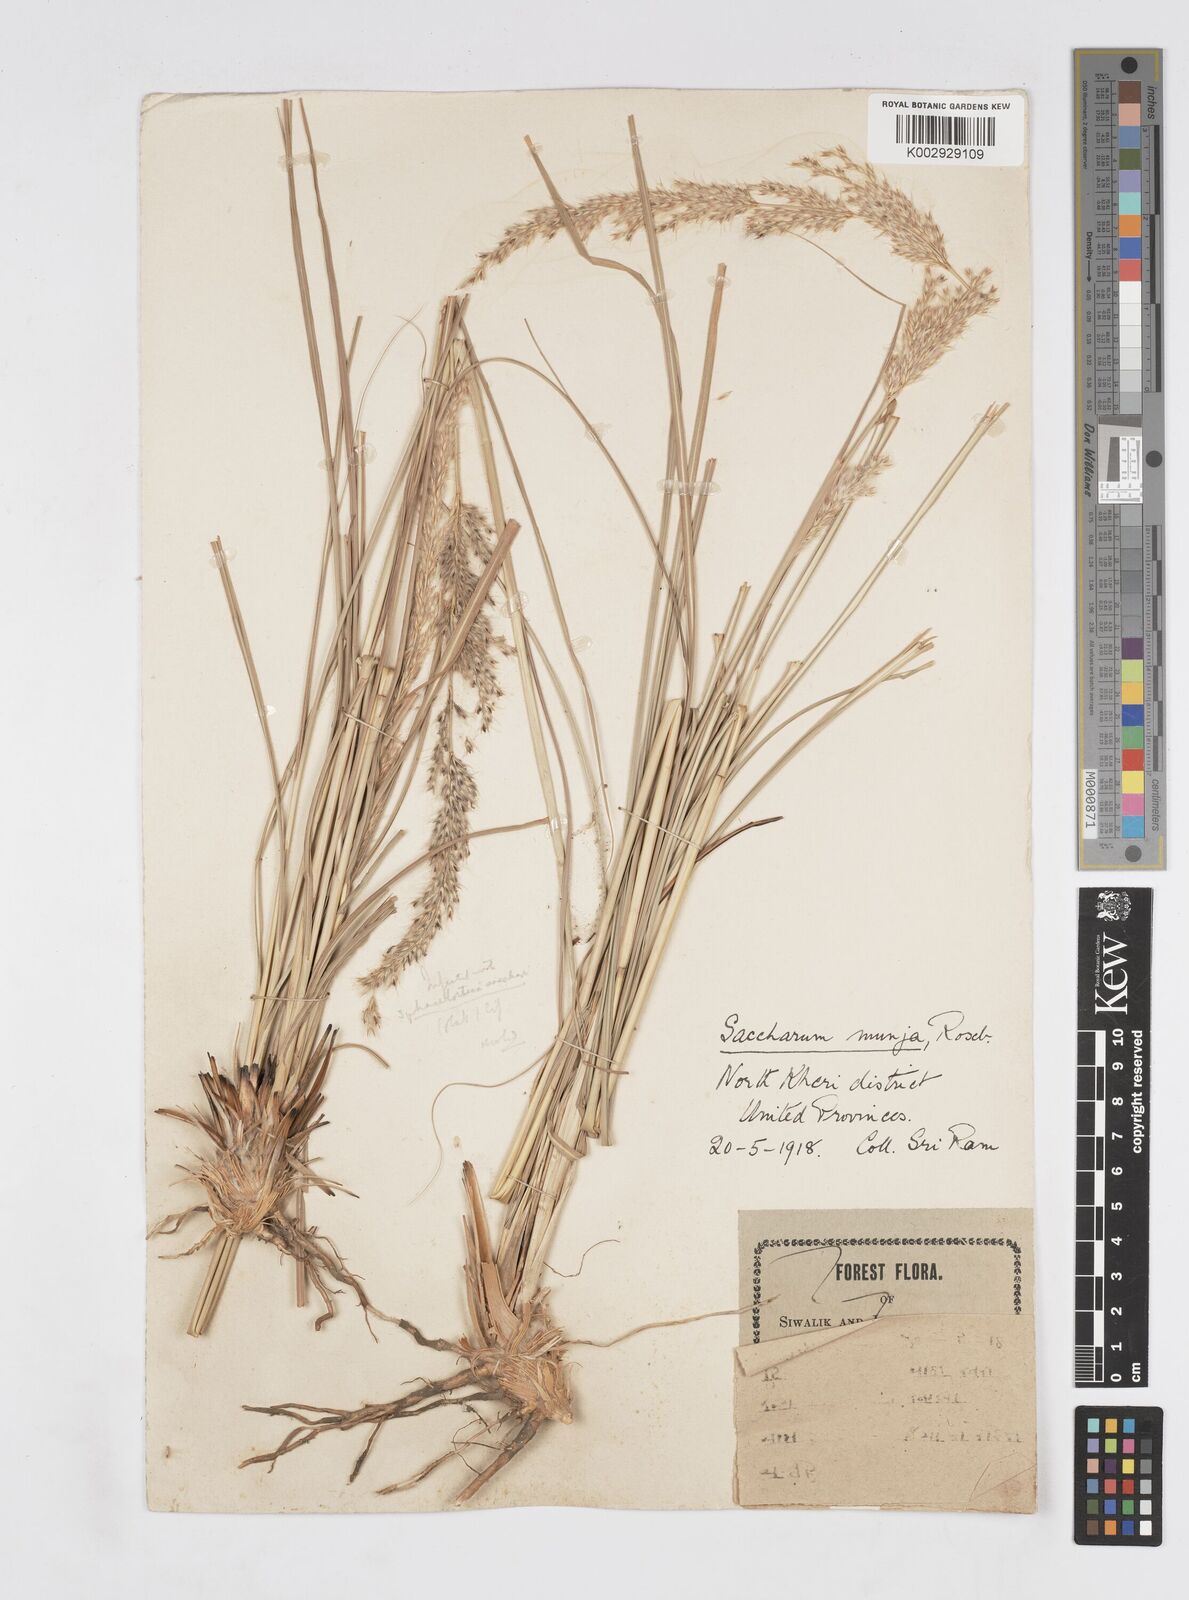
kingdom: Plantae
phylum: Tracheophyta
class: Liliopsida
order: Poales
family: Poaceae
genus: Saccharum
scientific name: Saccharum
